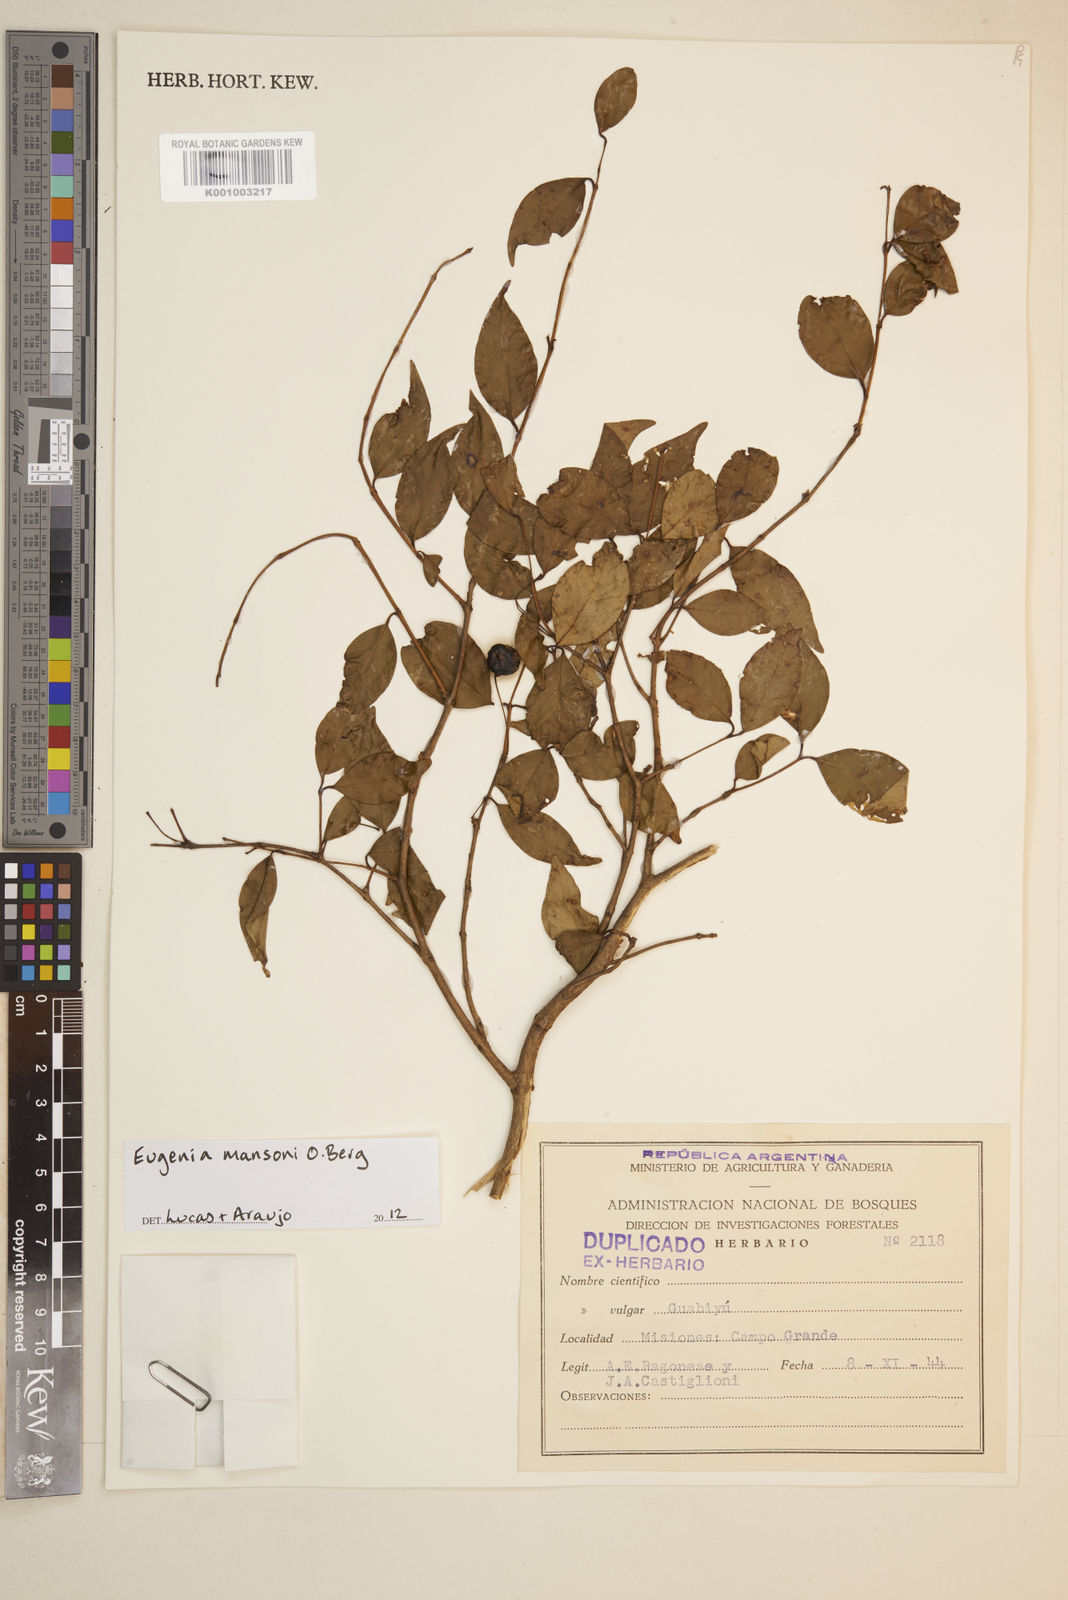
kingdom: Plantae
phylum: Tracheophyta
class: Magnoliopsida
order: Myrtales
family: Myrtaceae
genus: Eugenia
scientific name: Eugenia
